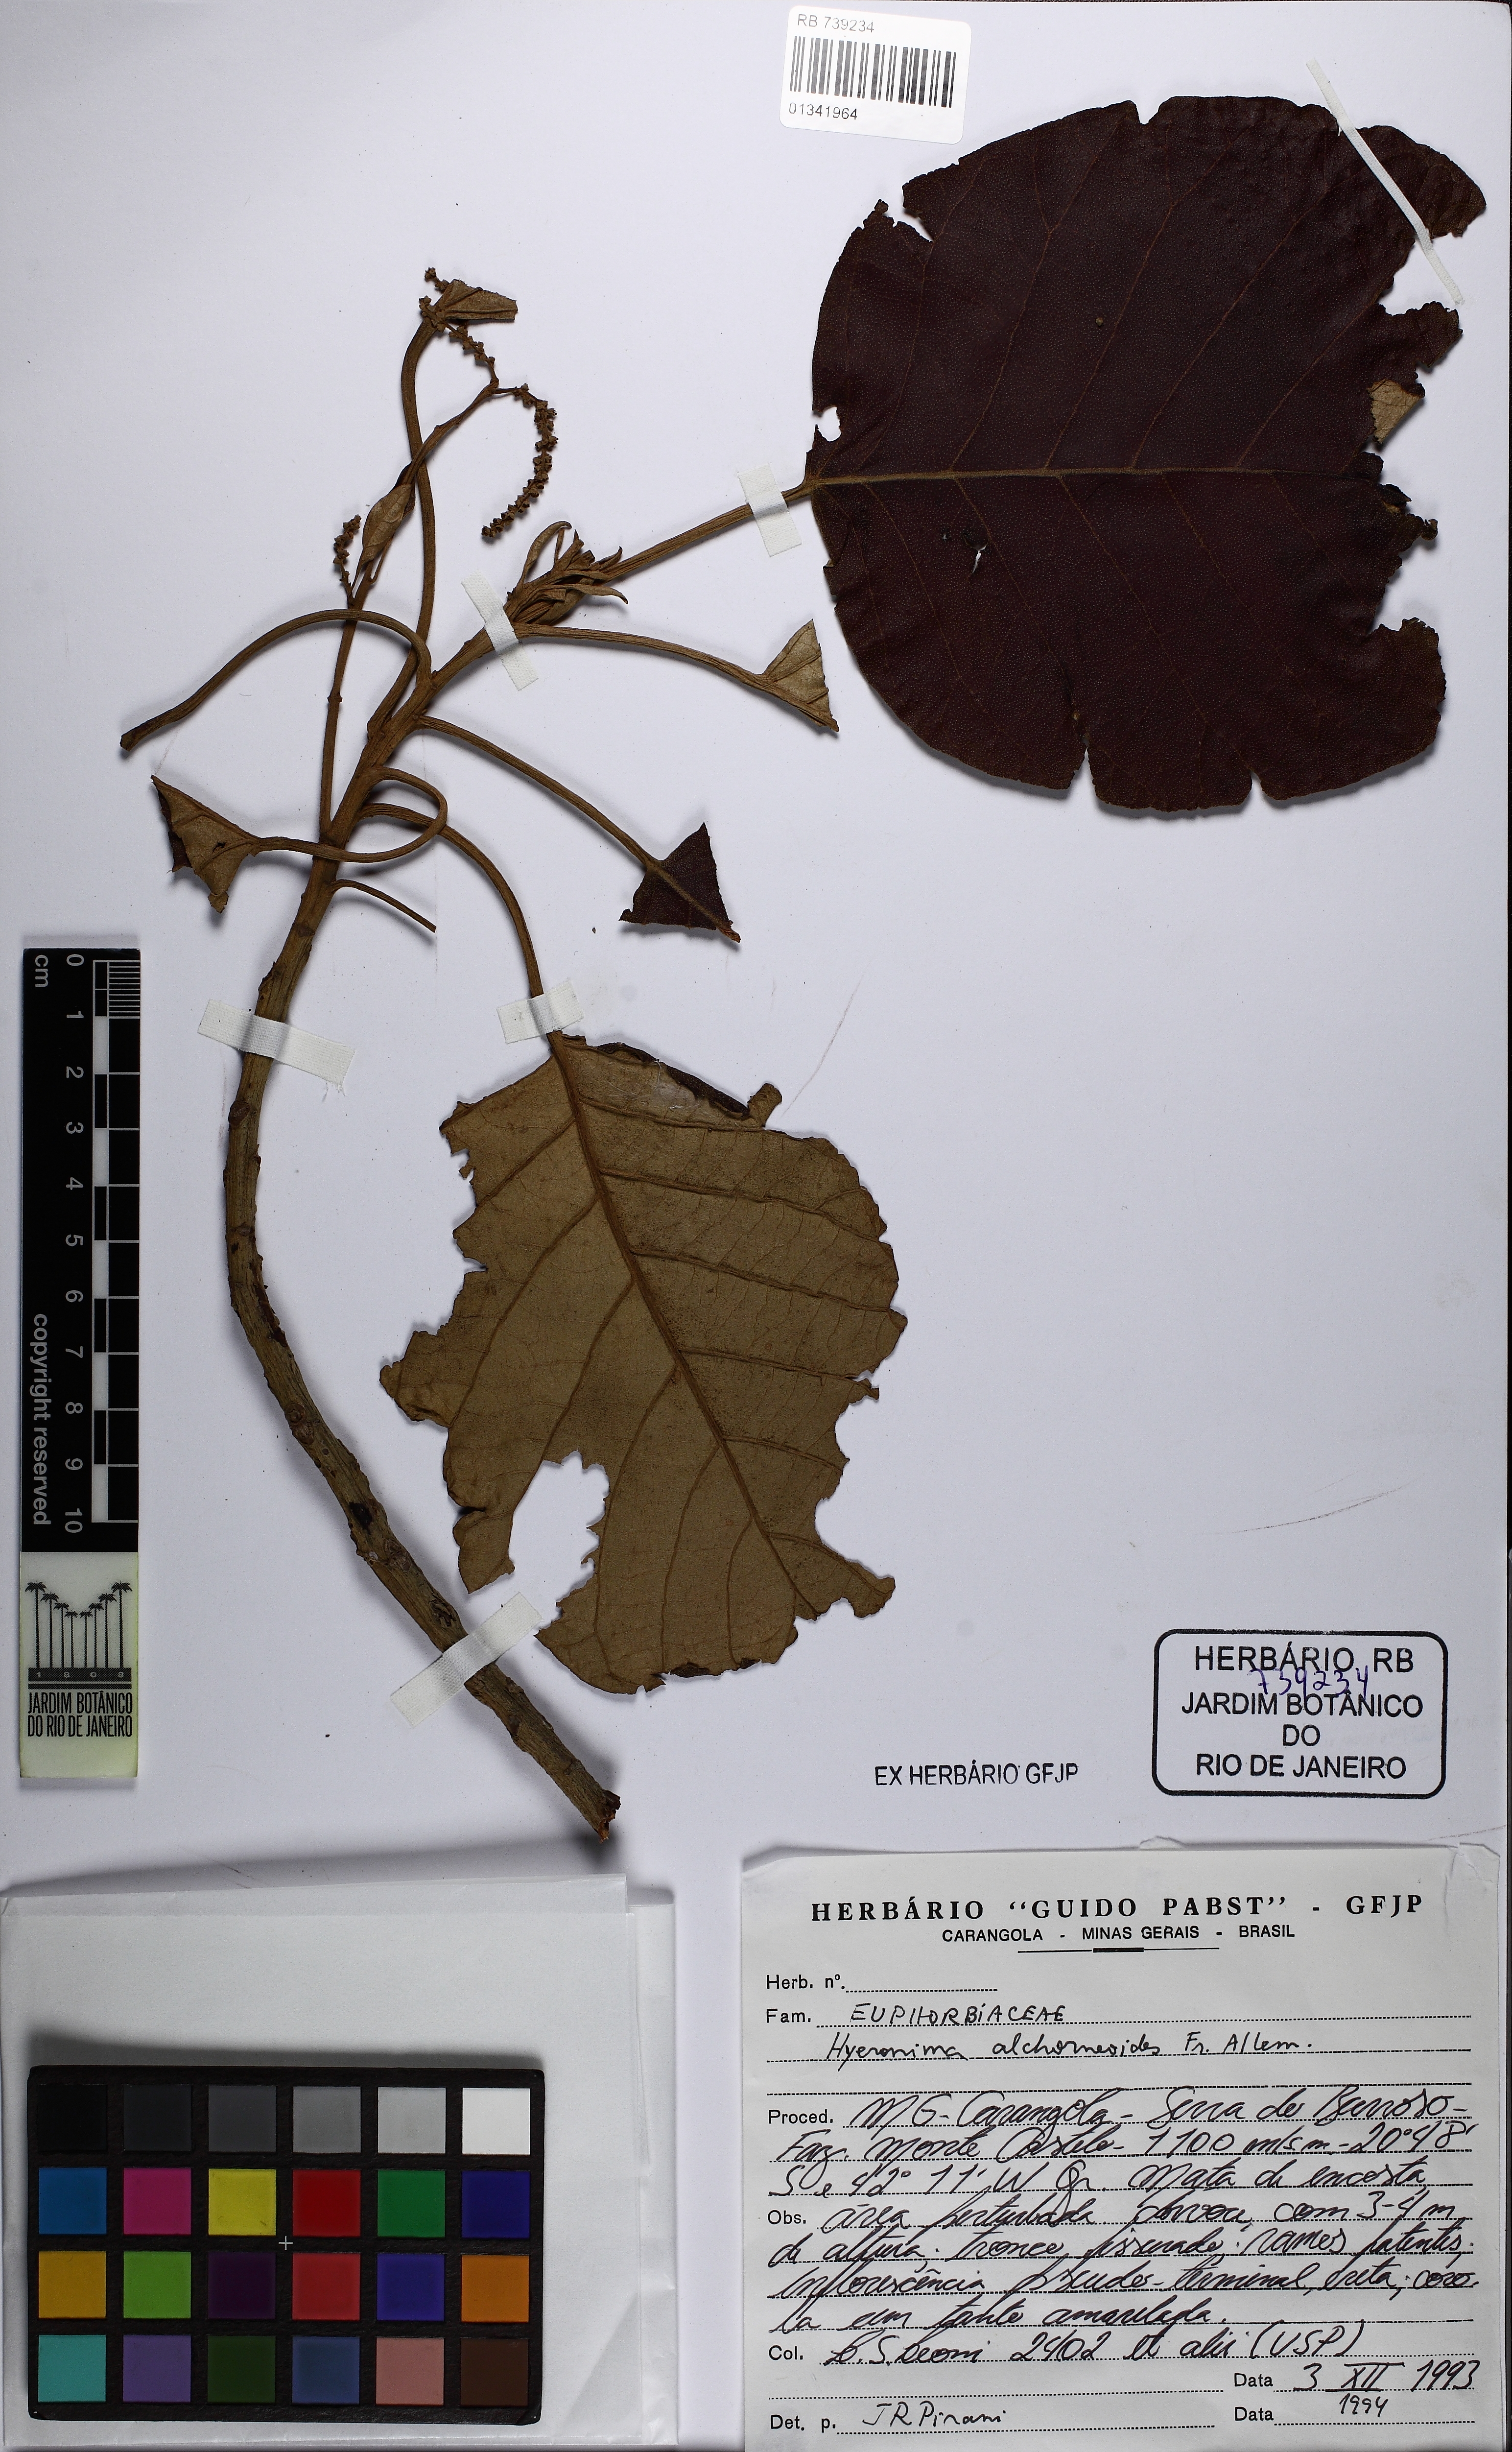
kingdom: Plantae
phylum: Tracheophyta
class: Magnoliopsida
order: Malpighiales
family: Phyllanthaceae
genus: Hieronyma
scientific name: Hieronyma alchorneoides
